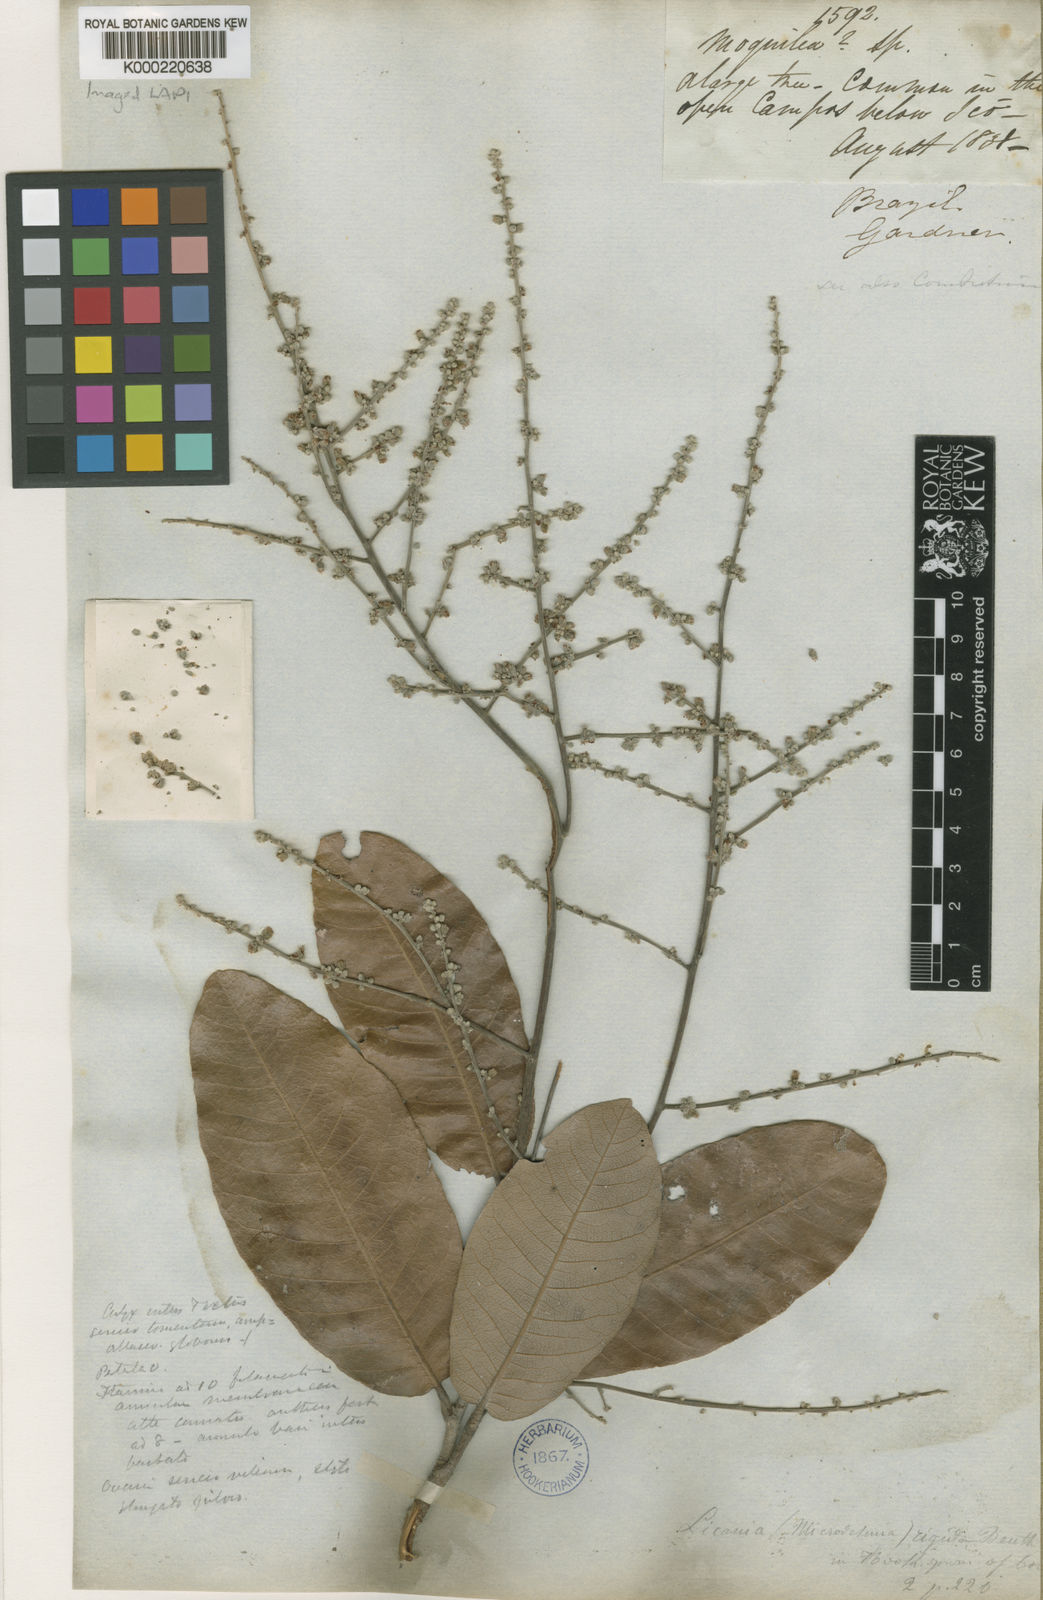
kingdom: Plantae
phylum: Tracheophyta
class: Magnoliopsida
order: Malpighiales
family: Chrysobalanaceae
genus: Microdesmia
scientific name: Microdesmia rigida
